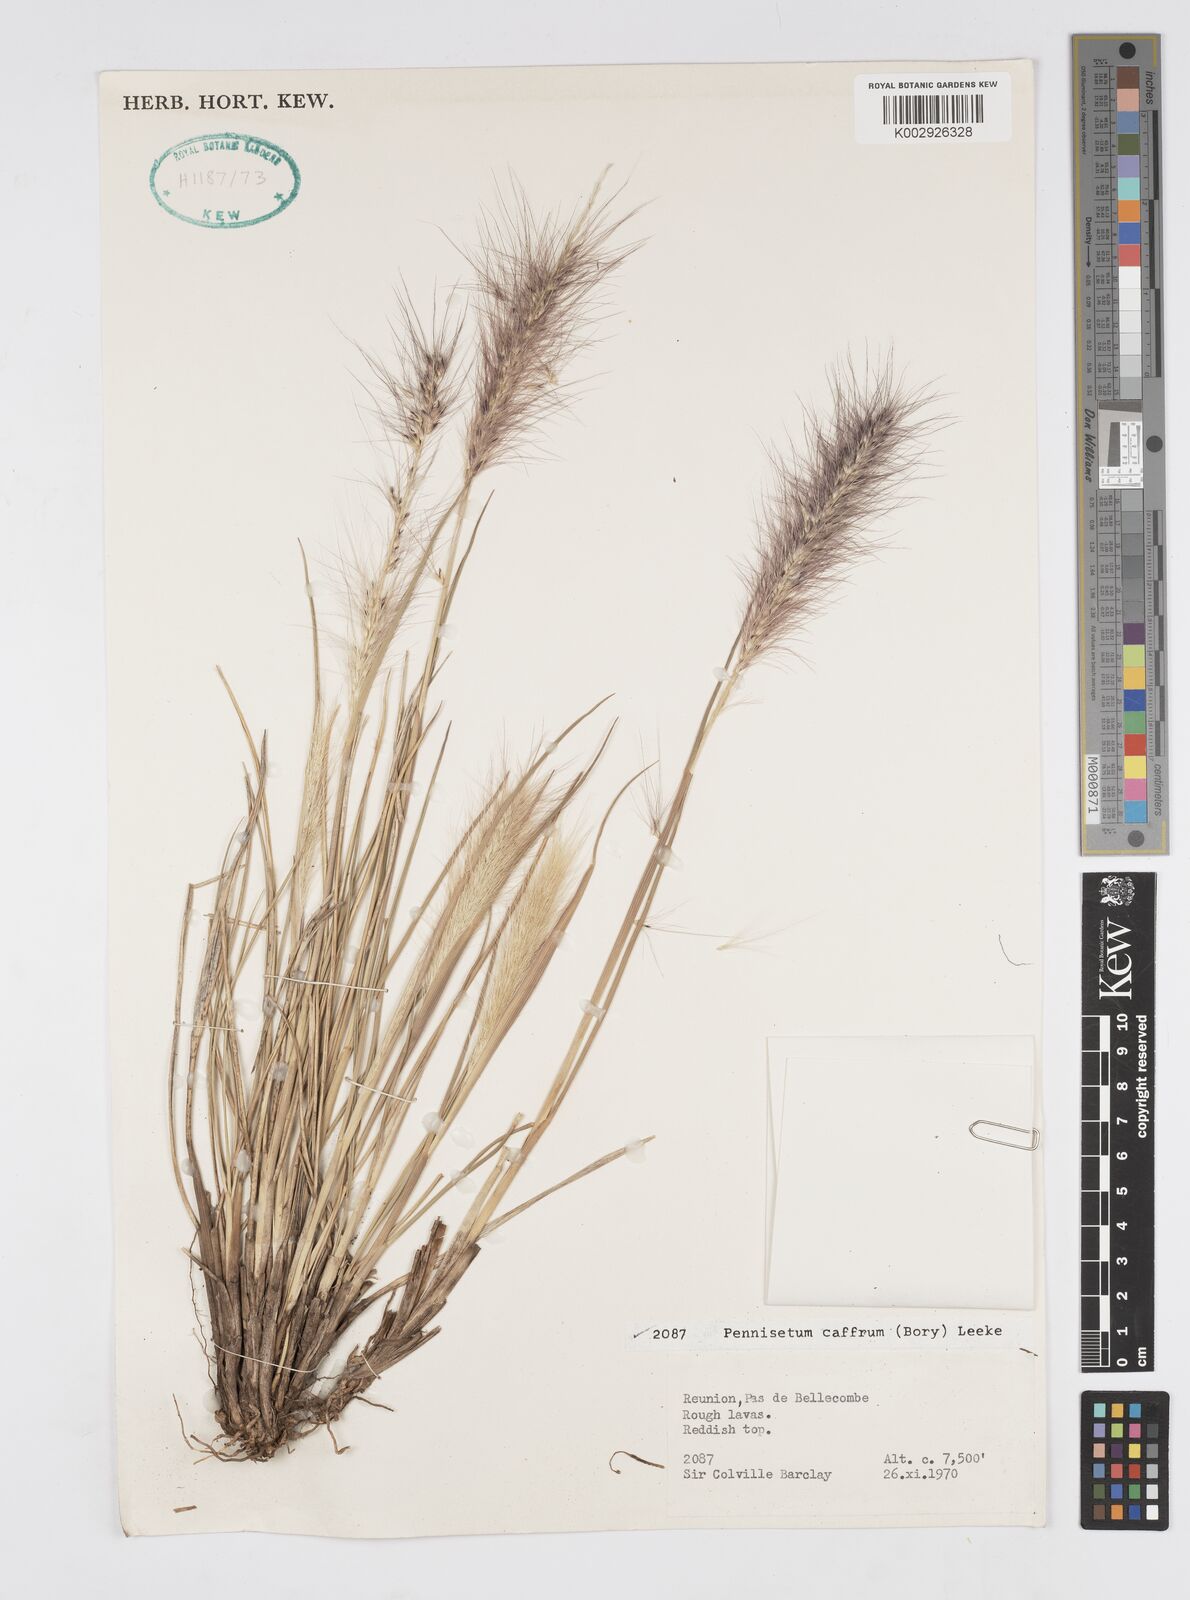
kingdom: Plantae
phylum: Tracheophyta
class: Liliopsida
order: Poales
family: Poaceae
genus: Cenchrus
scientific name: Cenchrus cafer
